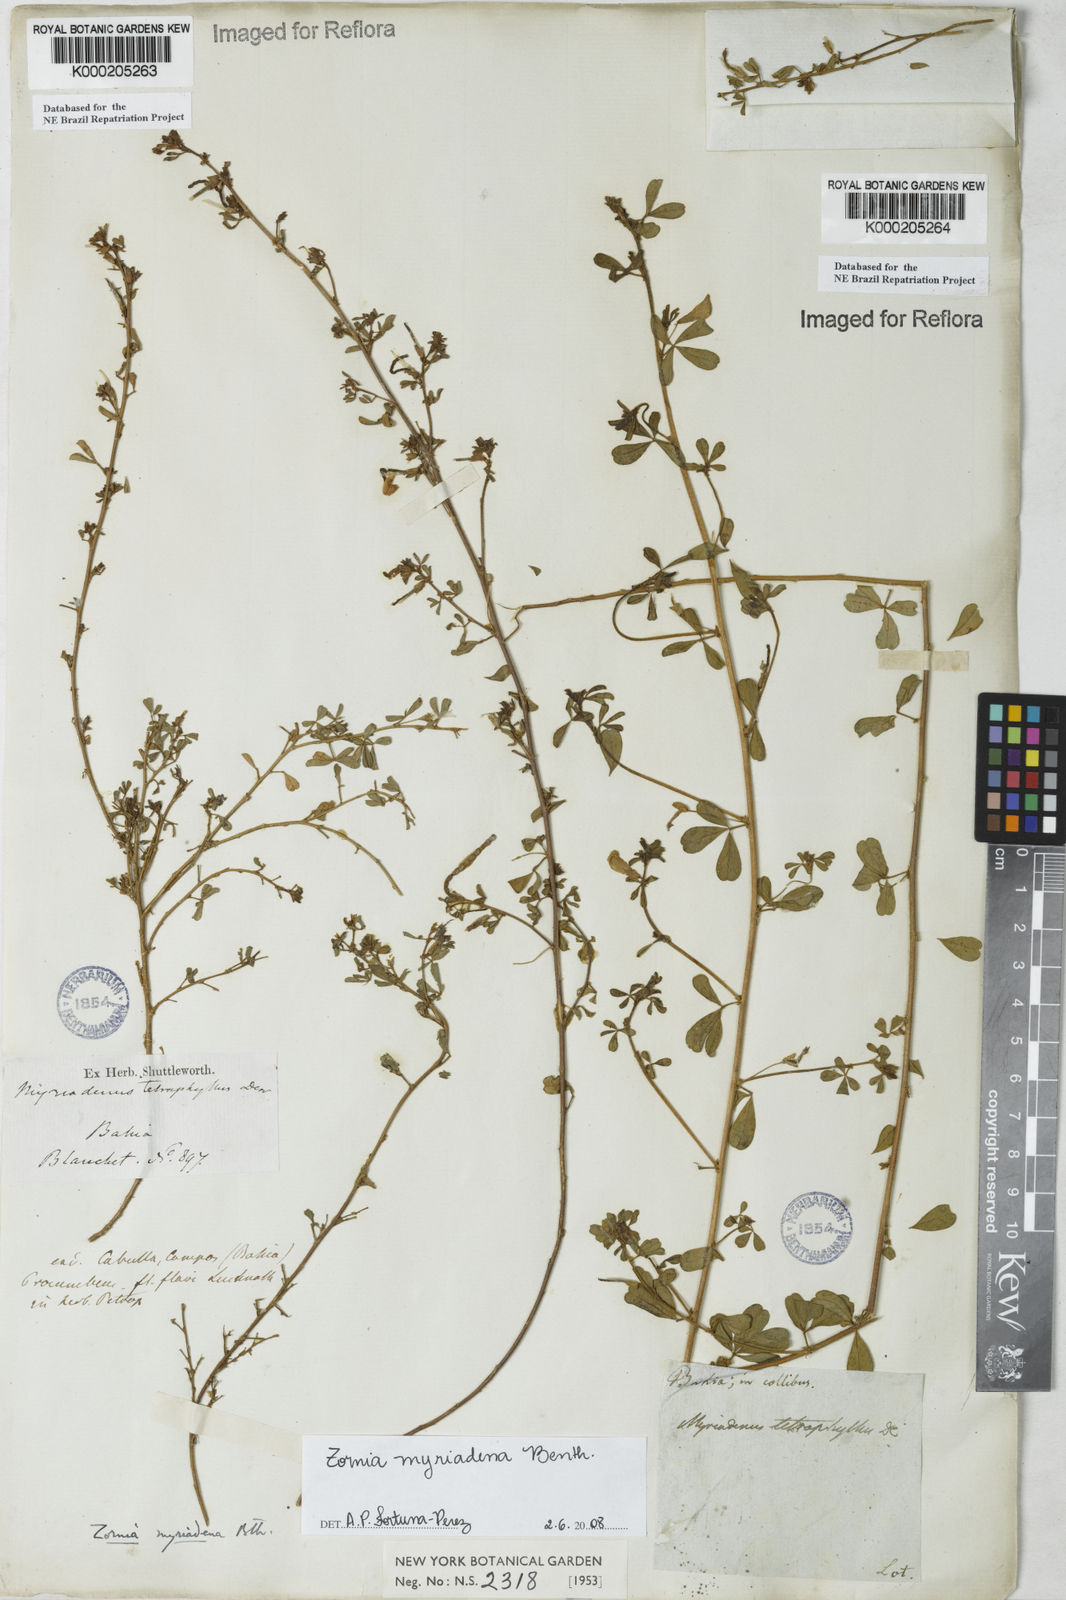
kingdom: Plantae
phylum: Tracheophyta
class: Magnoliopsida
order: Fabales
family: Fabaceae
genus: Zornia
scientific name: Zornia myriadena
